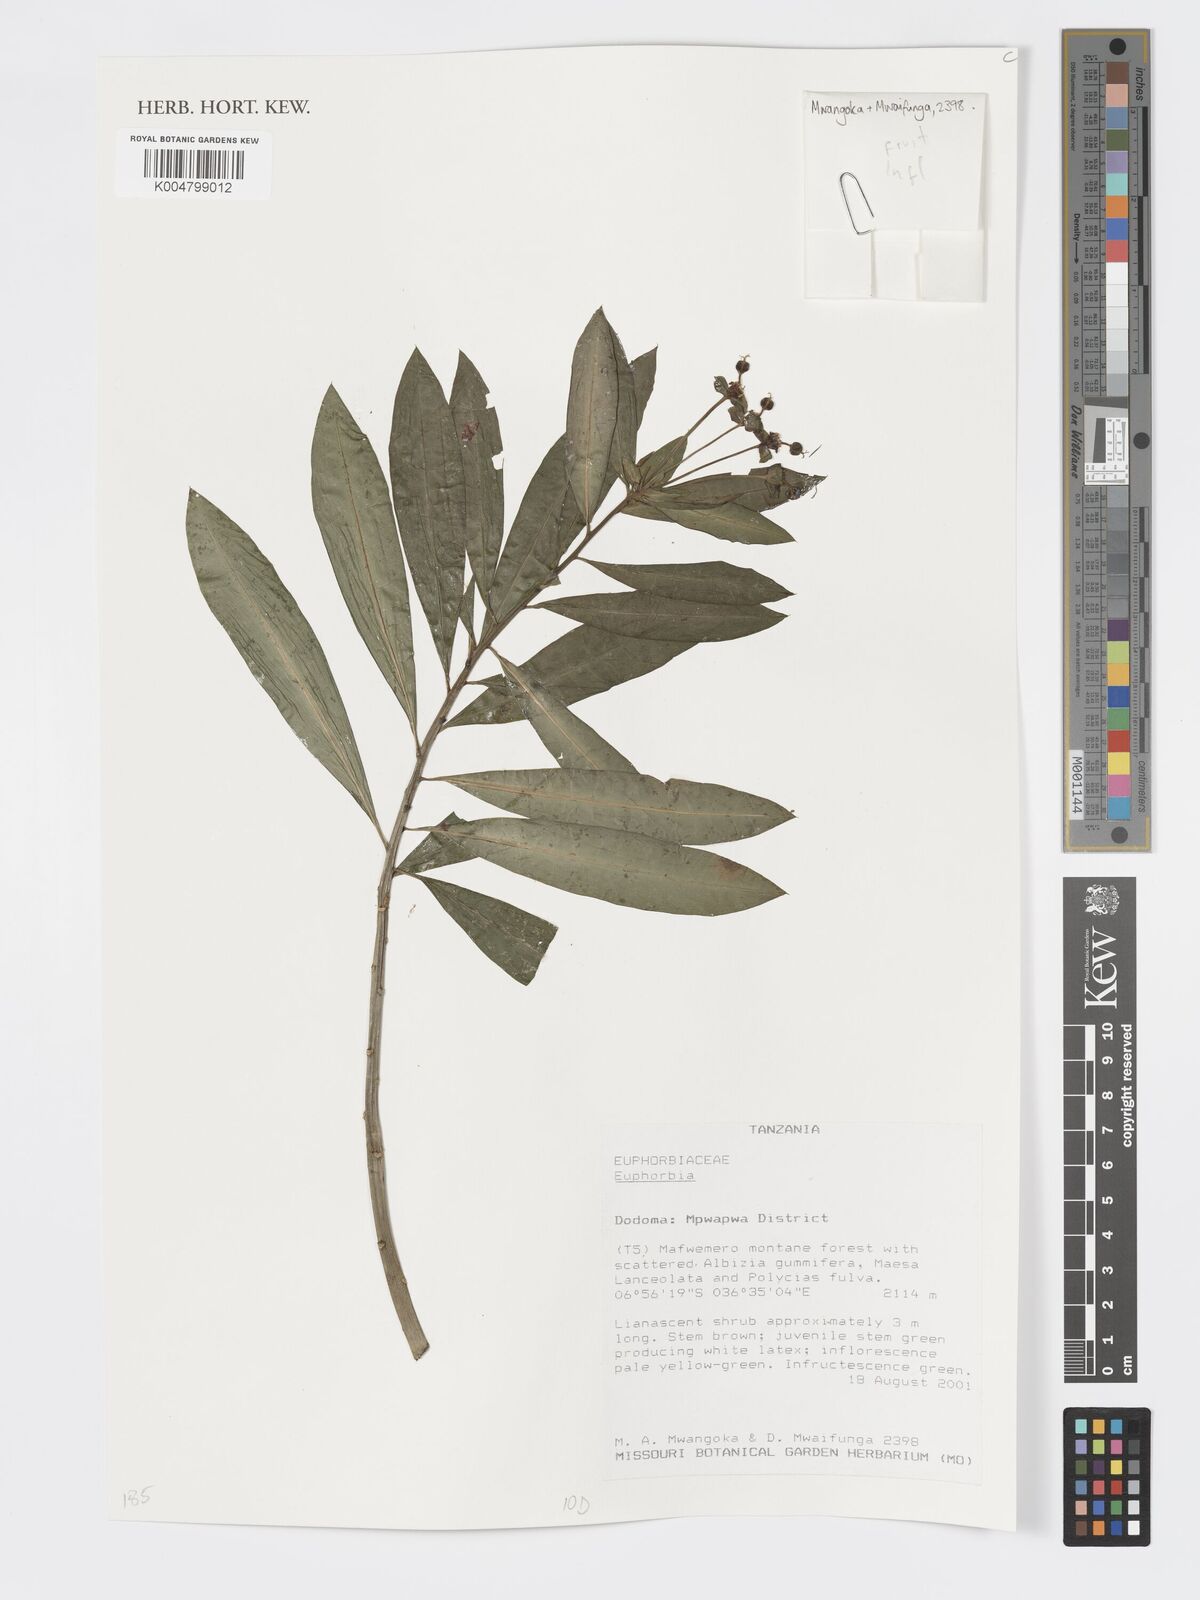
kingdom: Plantae
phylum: Tracheophyta
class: Magnoliopsida
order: Malpighiales
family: Euphorbiaceae
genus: Euphorbia
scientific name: Euphorbia
